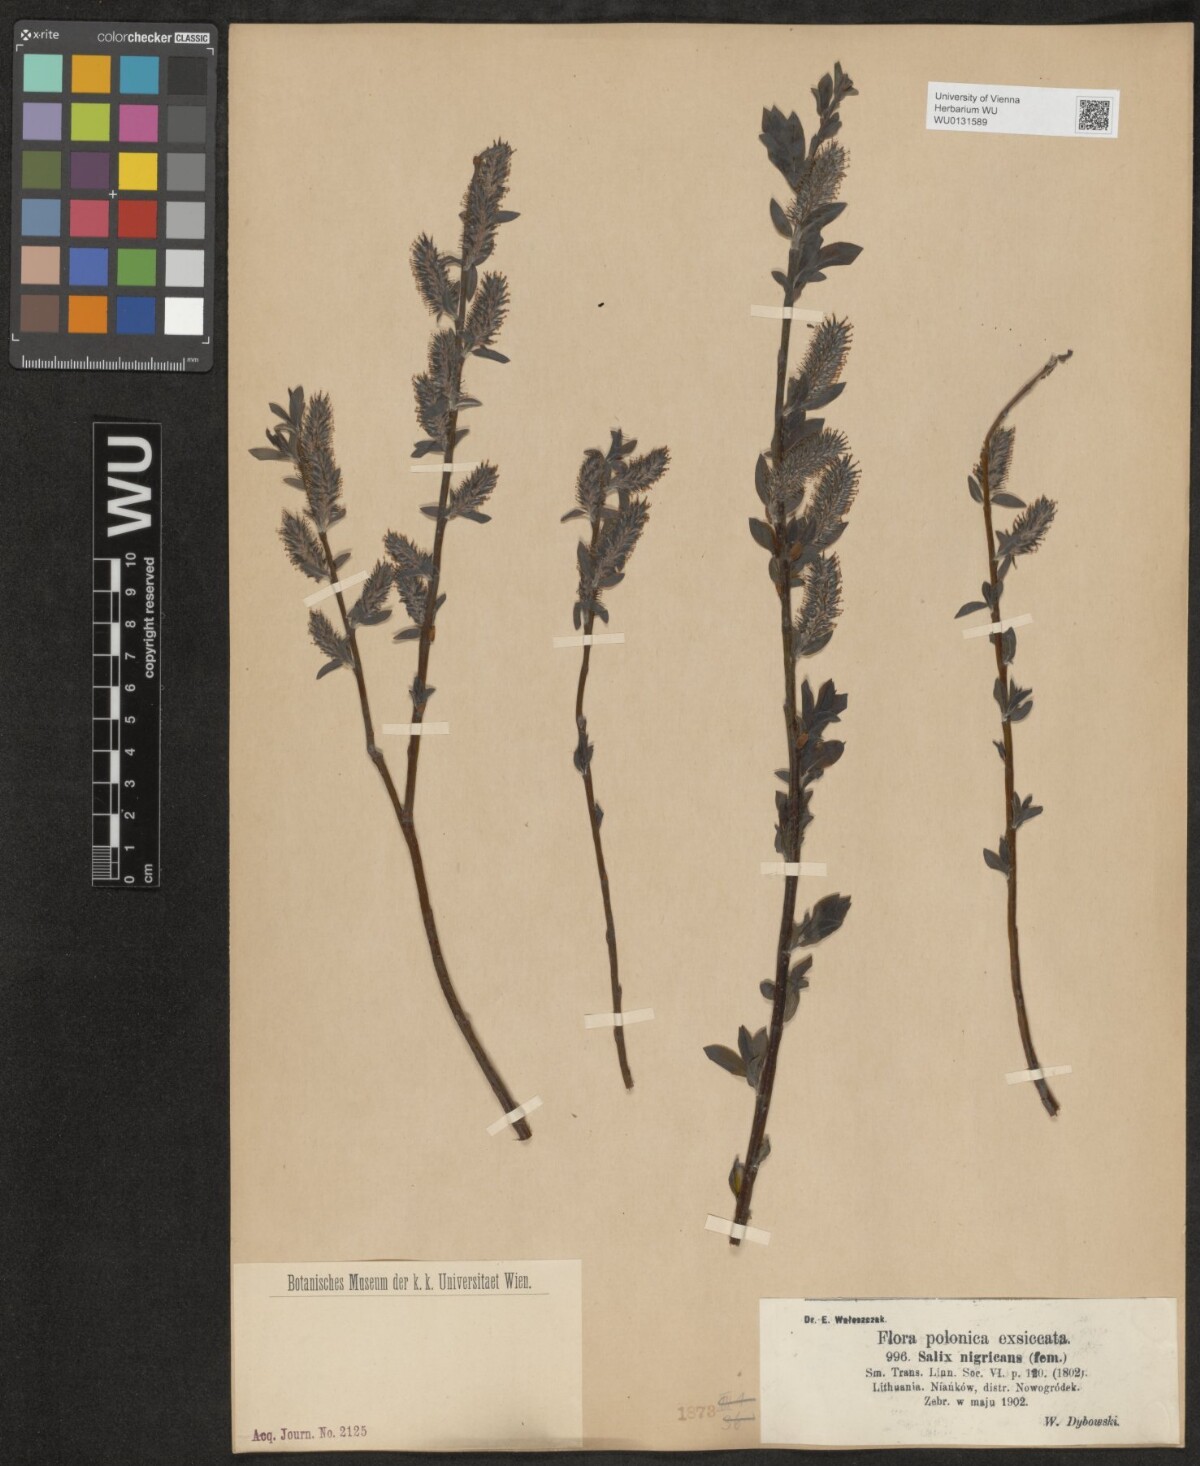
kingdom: Plantae
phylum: Tracheophyta
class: Magnoliopsida
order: Malpighiales
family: Salicaceae
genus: Salix
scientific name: Salix myrsinifolia
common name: Dark-leaved willow
